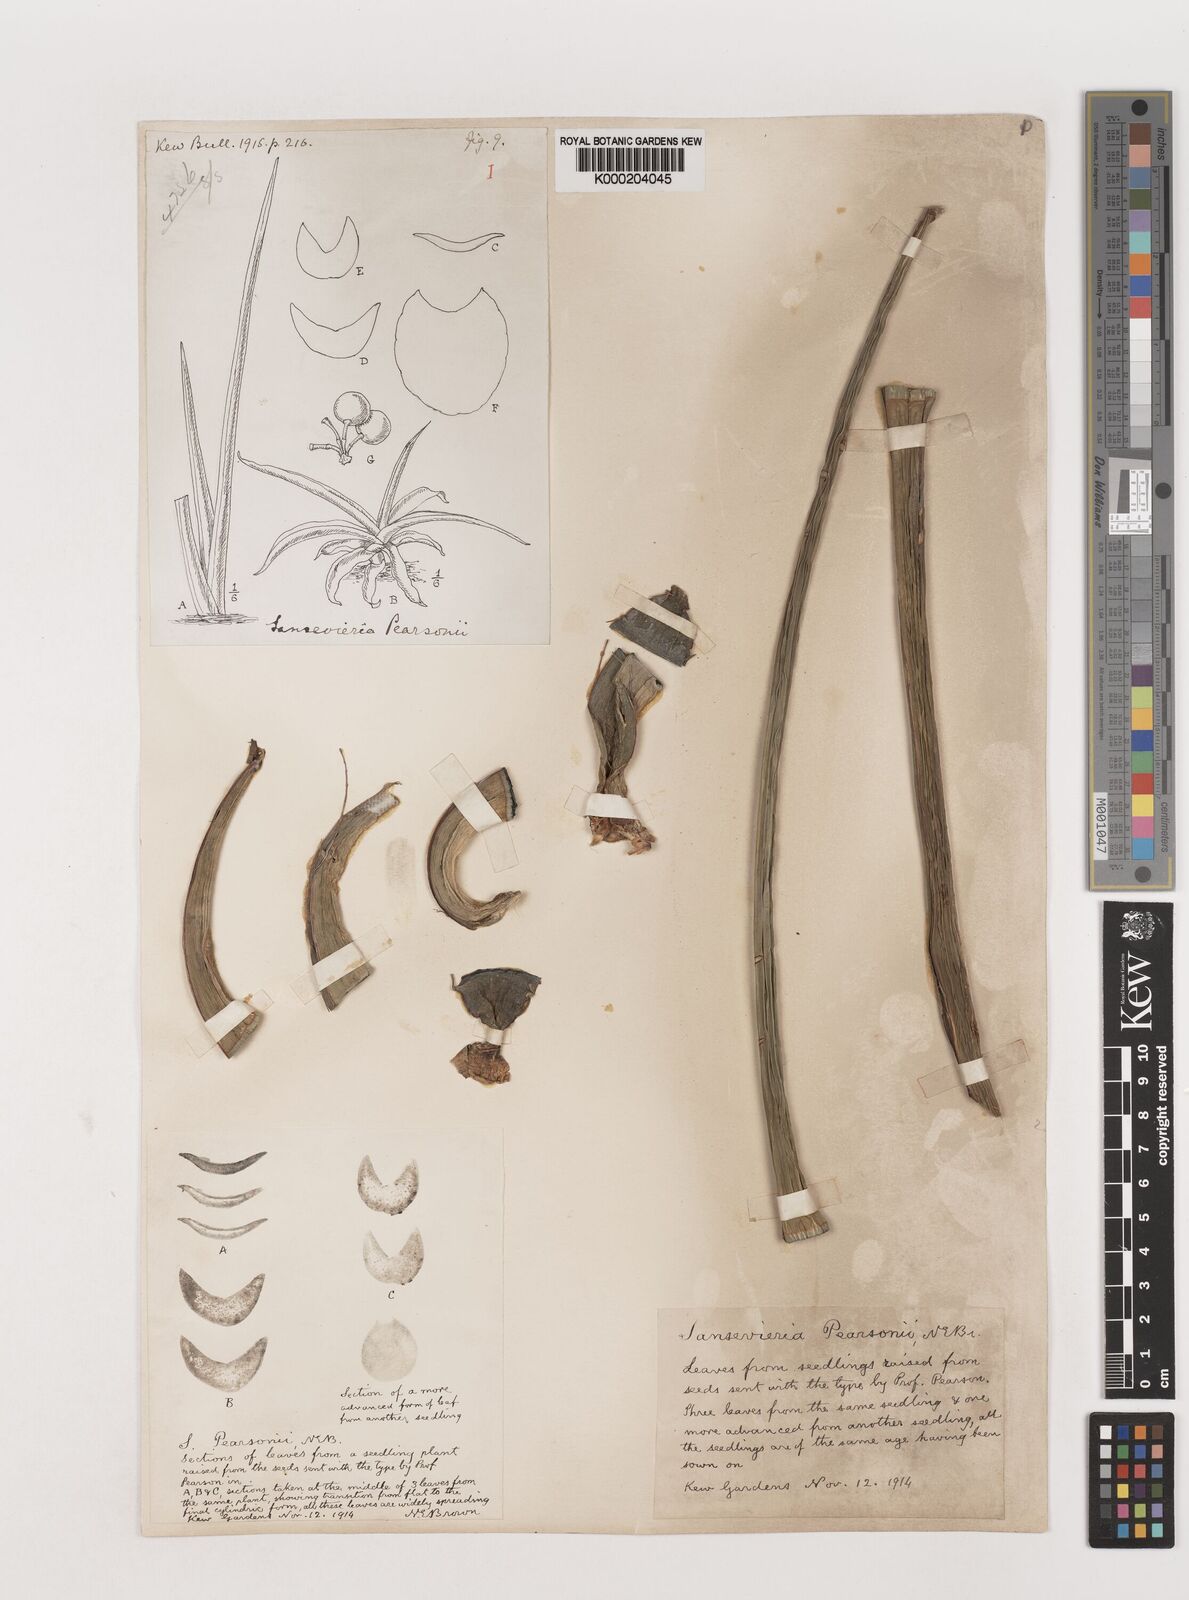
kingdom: Plantae
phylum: Tracheophyta
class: Liliopsida
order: Asparagales
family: Asparagaceae
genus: Dracaena
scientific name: Dracaena pearsonii
